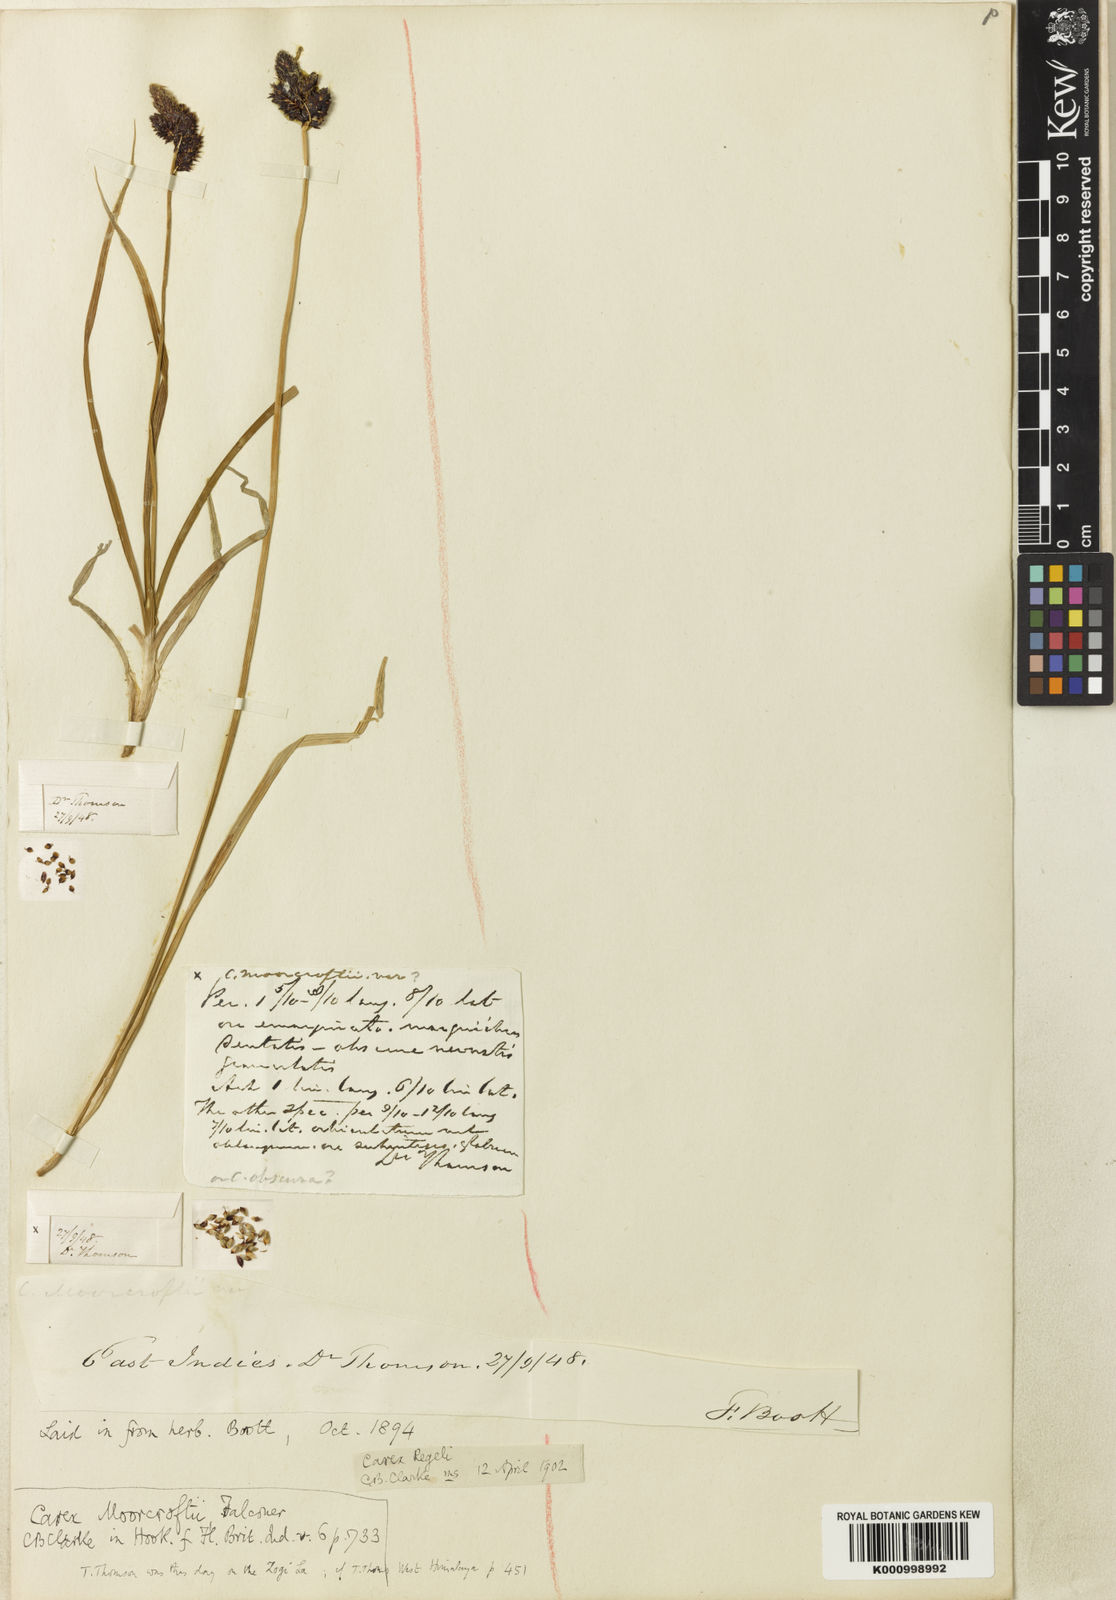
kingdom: Plantae
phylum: Tracheophyta
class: Liliopsida
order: Poales
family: Cyperaceae
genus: Carex
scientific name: Carex melanantha
